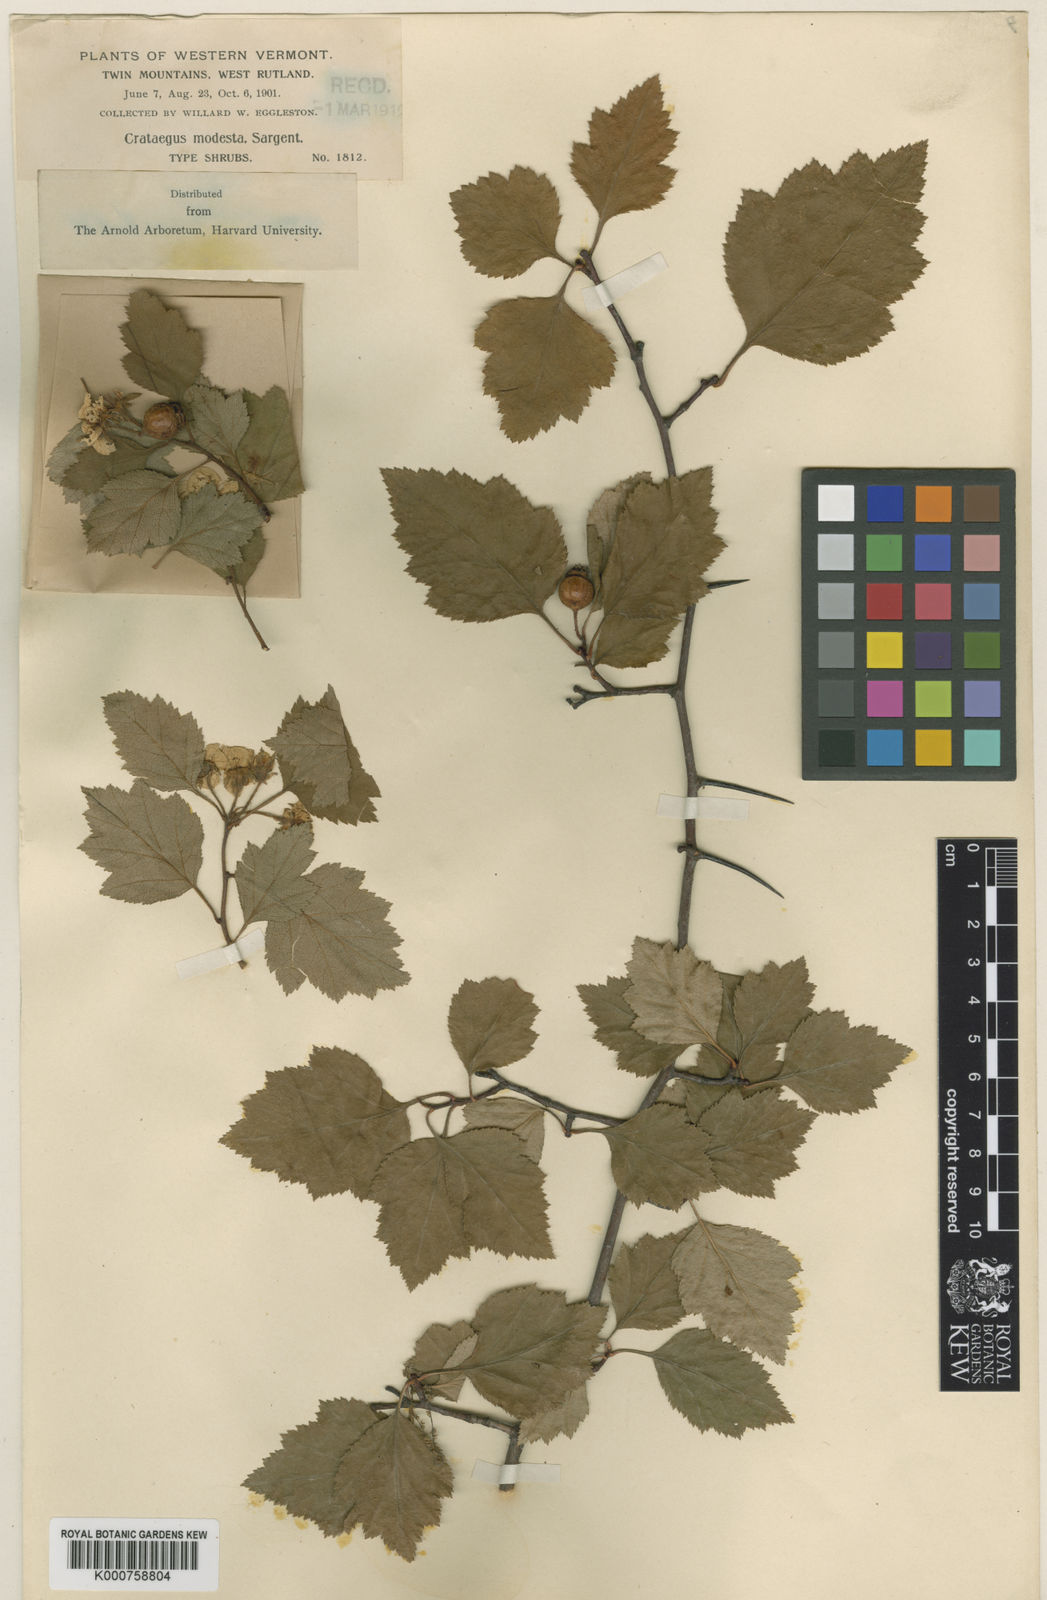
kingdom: Plantae
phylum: Tracheophyta
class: Magnoliopsida
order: Rosales
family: Rosaceae
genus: Crataegus
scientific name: Crataegus modesta
